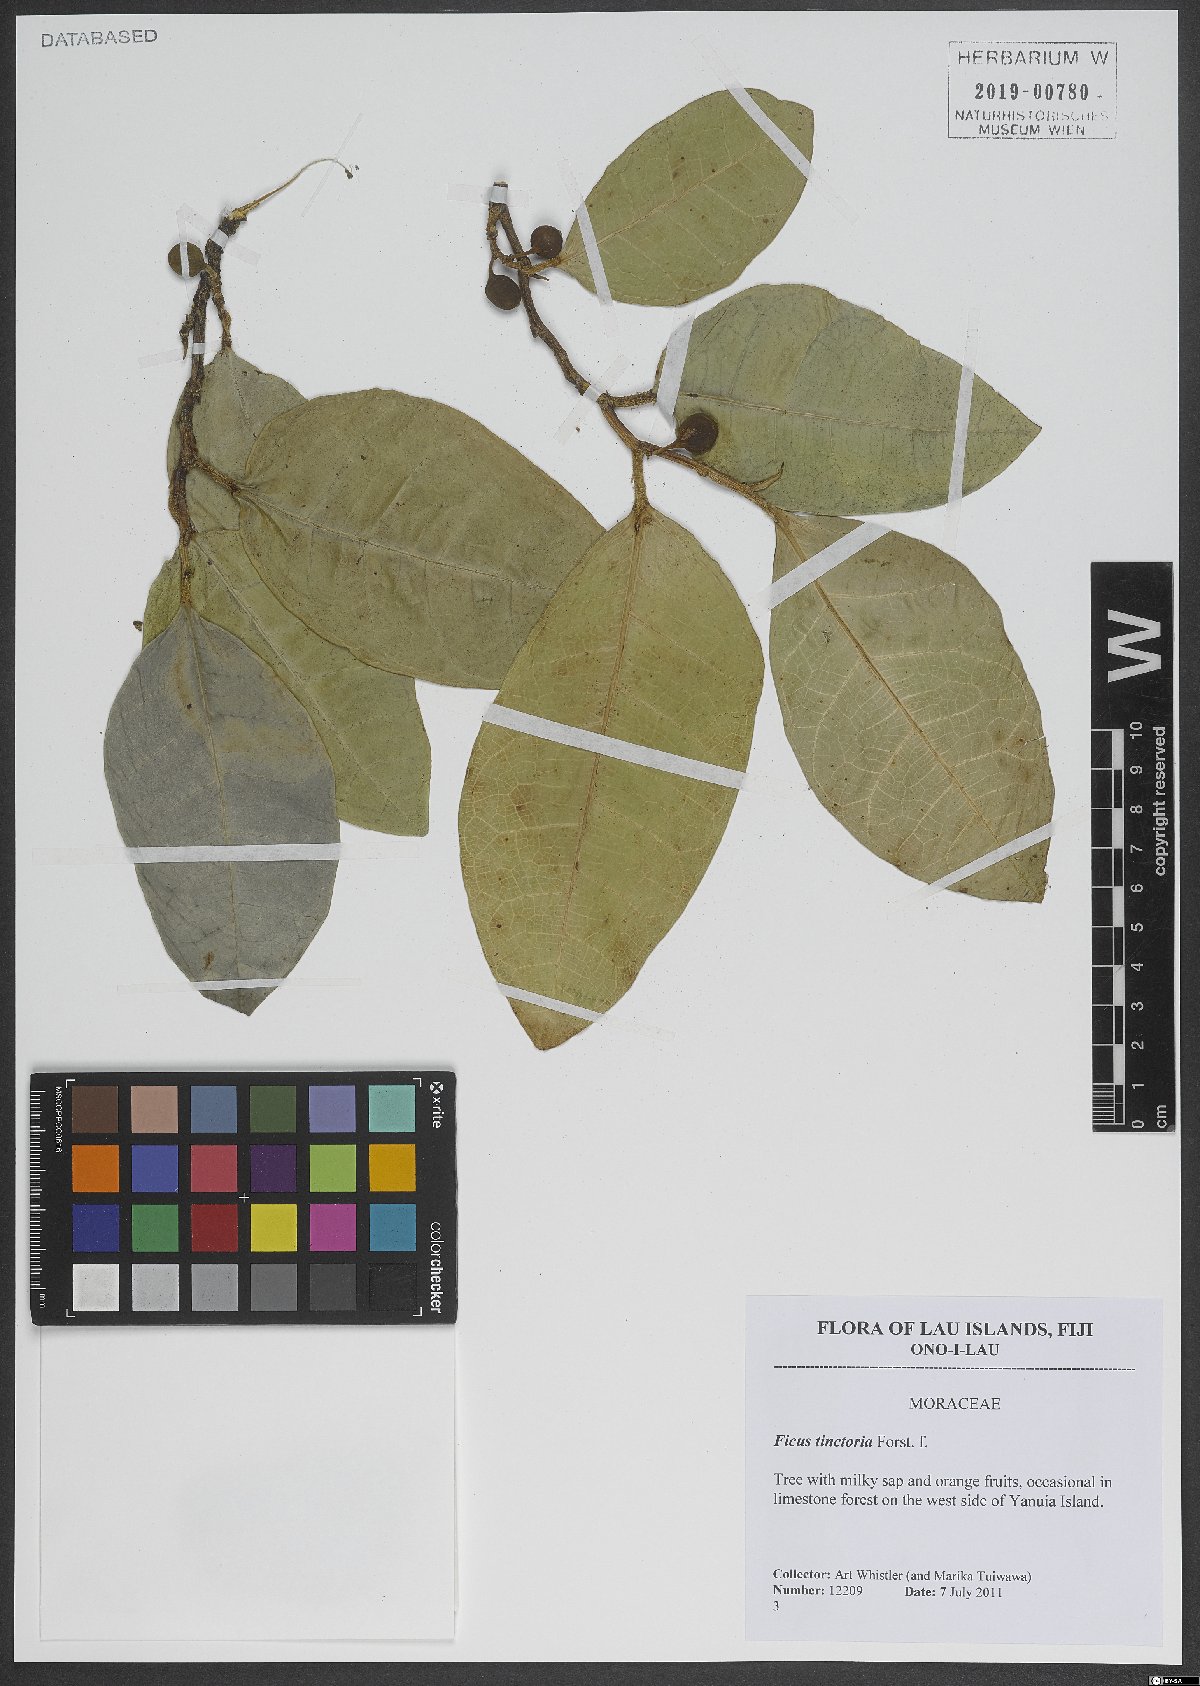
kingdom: Plantae
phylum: Tracheophyta
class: Magnoliopsida
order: Rosales
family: Moraceae
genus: Ficus
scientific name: Ficus tinctoria
